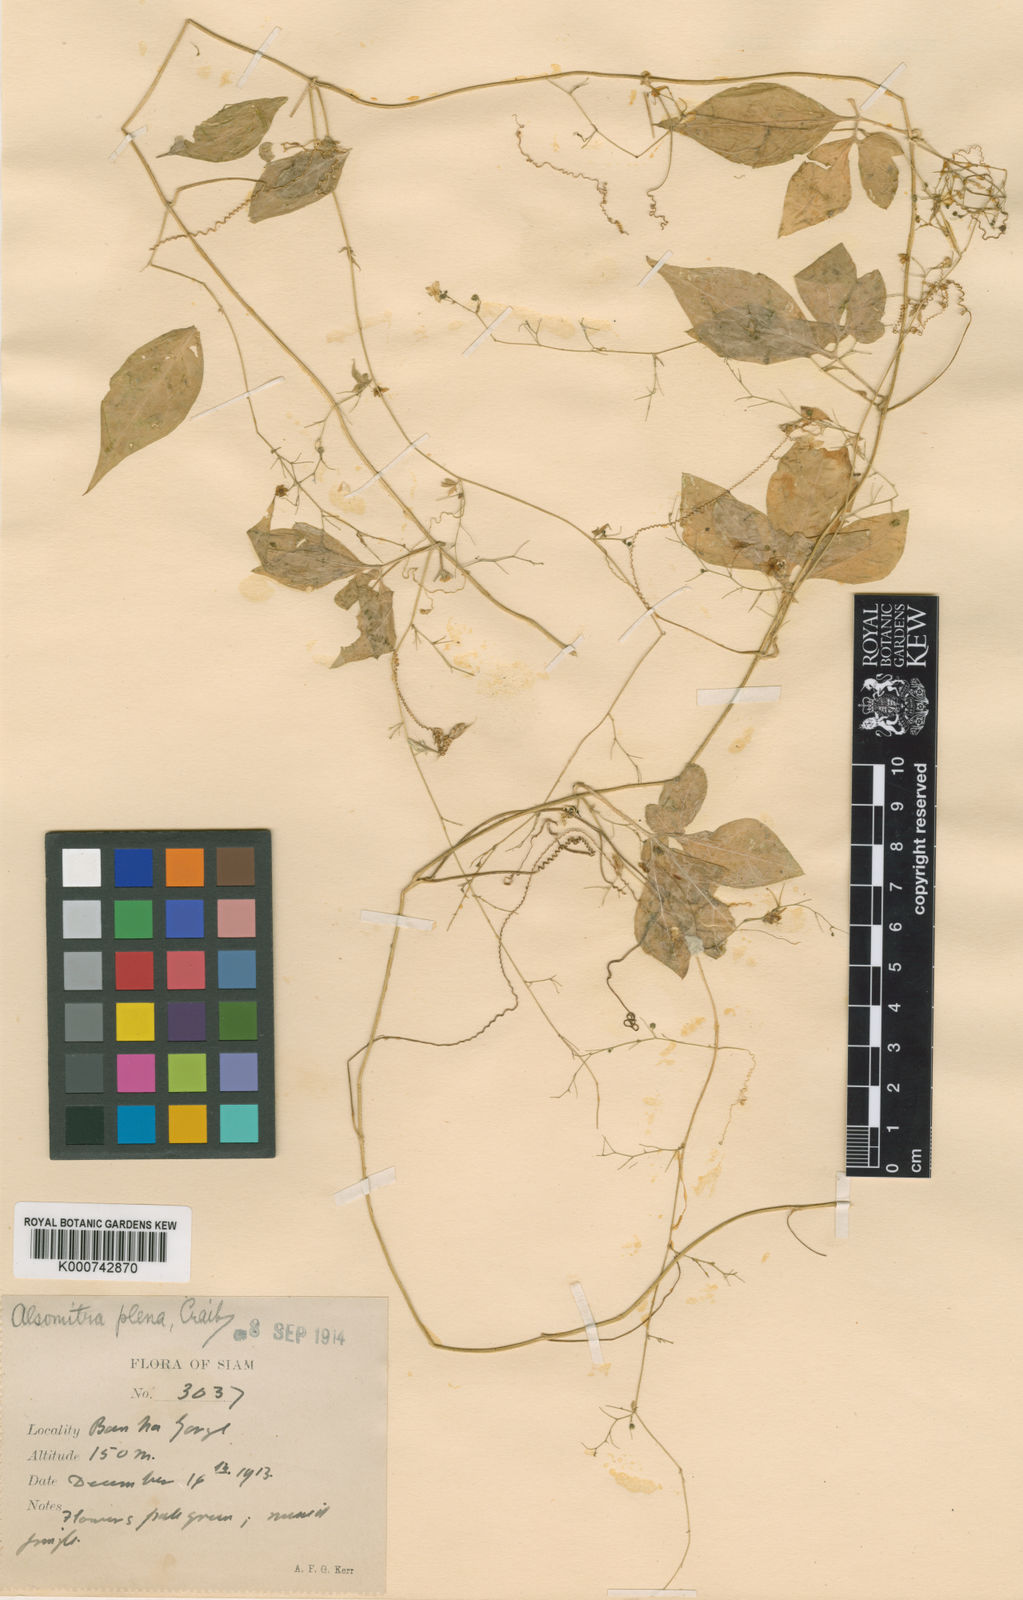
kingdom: Plantae
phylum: Tracheophyta
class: Magnoliopsida
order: Cucurbitales
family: Cucurbitaceae
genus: Neoalsomitra
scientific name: Neoalsomitra plena
